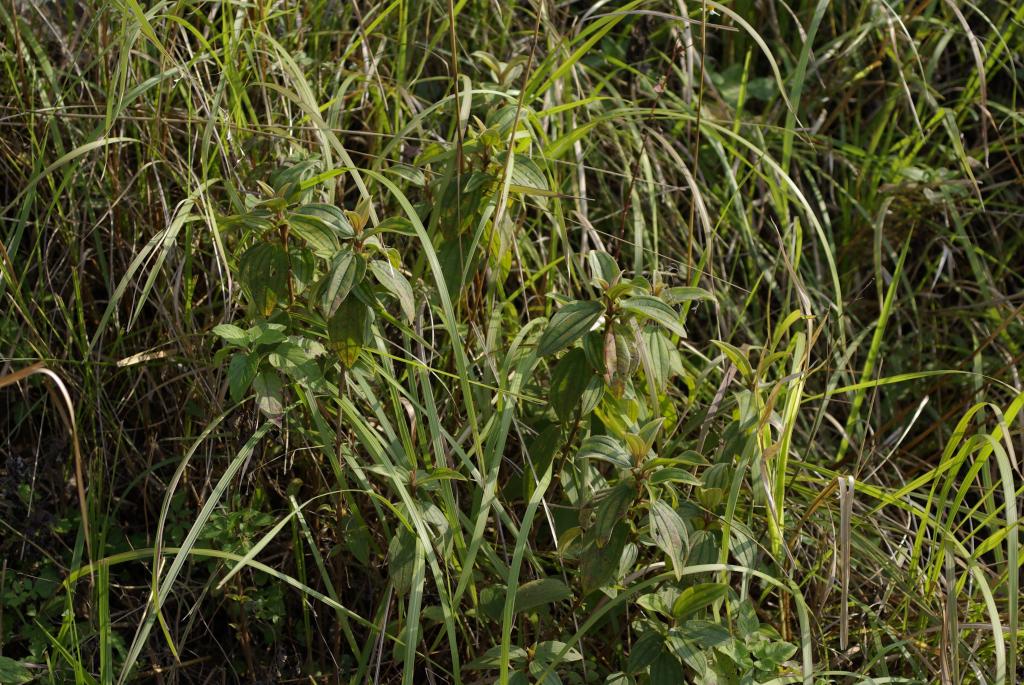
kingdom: Plantae
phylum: Tracheophyta
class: Magnoliopsida
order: Myrtales
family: Melastomataceae
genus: Melastoma
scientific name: Melastoma malabathricum
